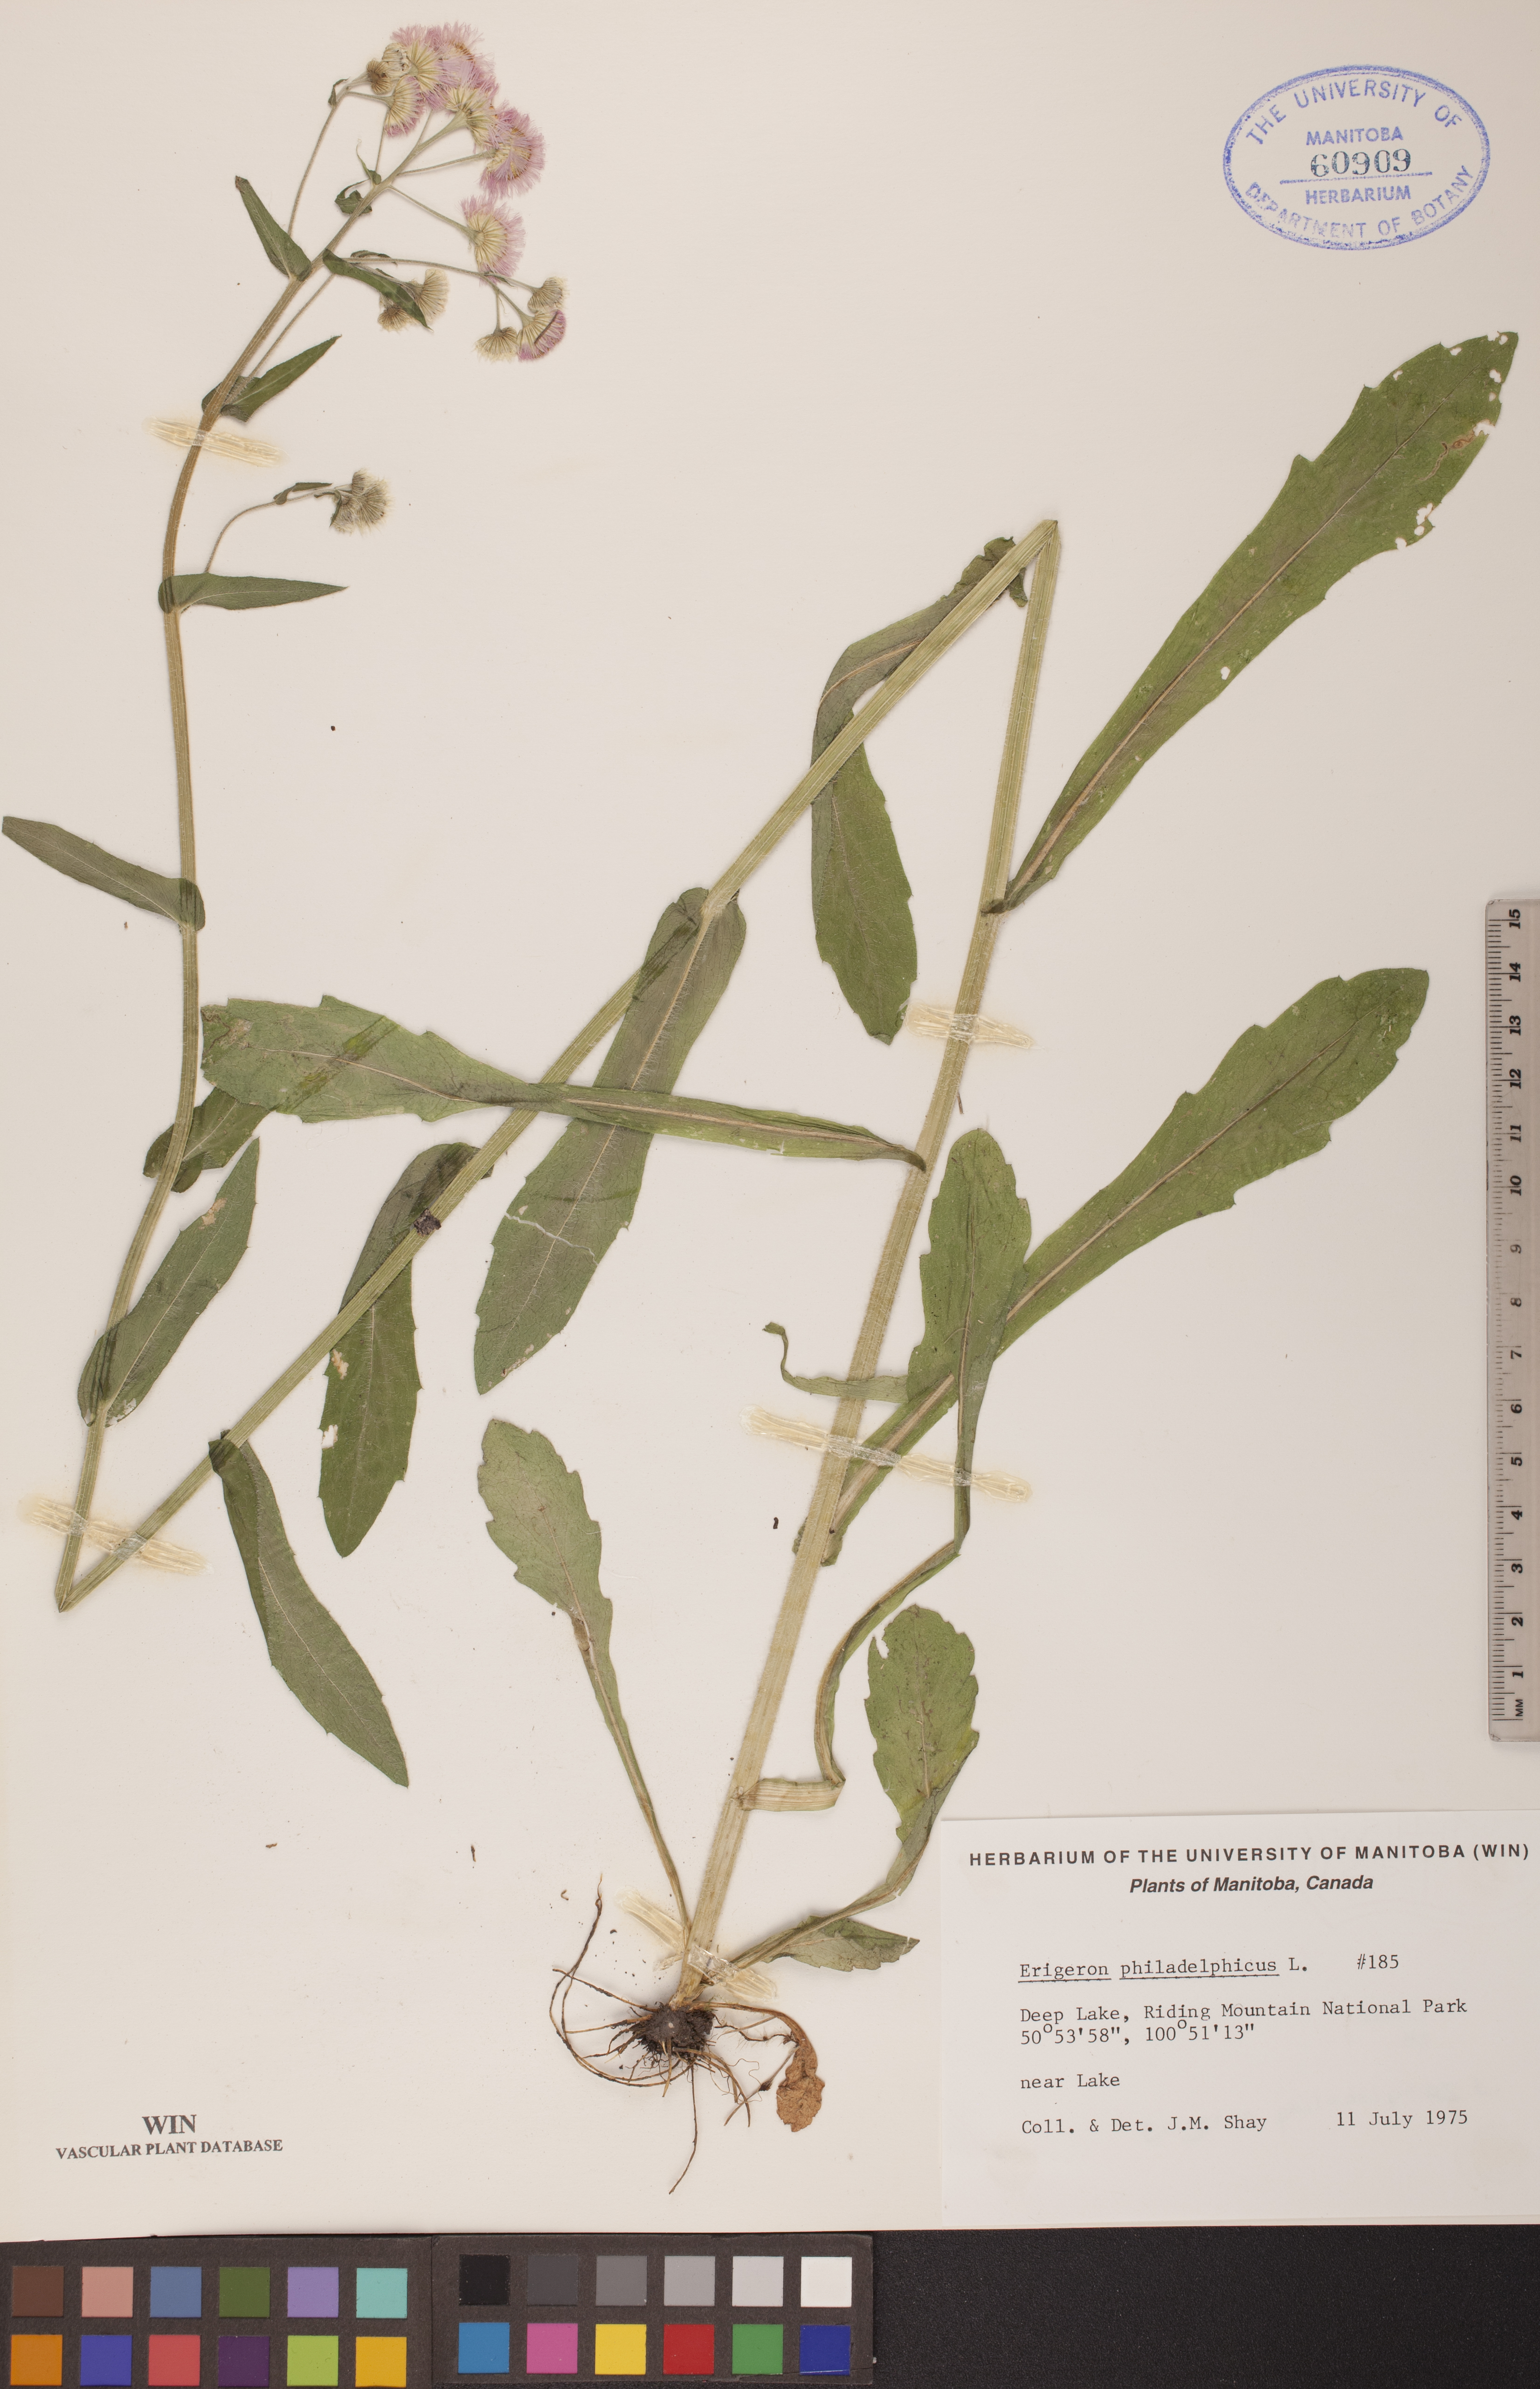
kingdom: Plantae
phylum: Tracheophyta
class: Magnoliopsida
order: Asterales
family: Asteraceae
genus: Erigeron
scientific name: Erigeron philadelphicus
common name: Robin's-plantain
